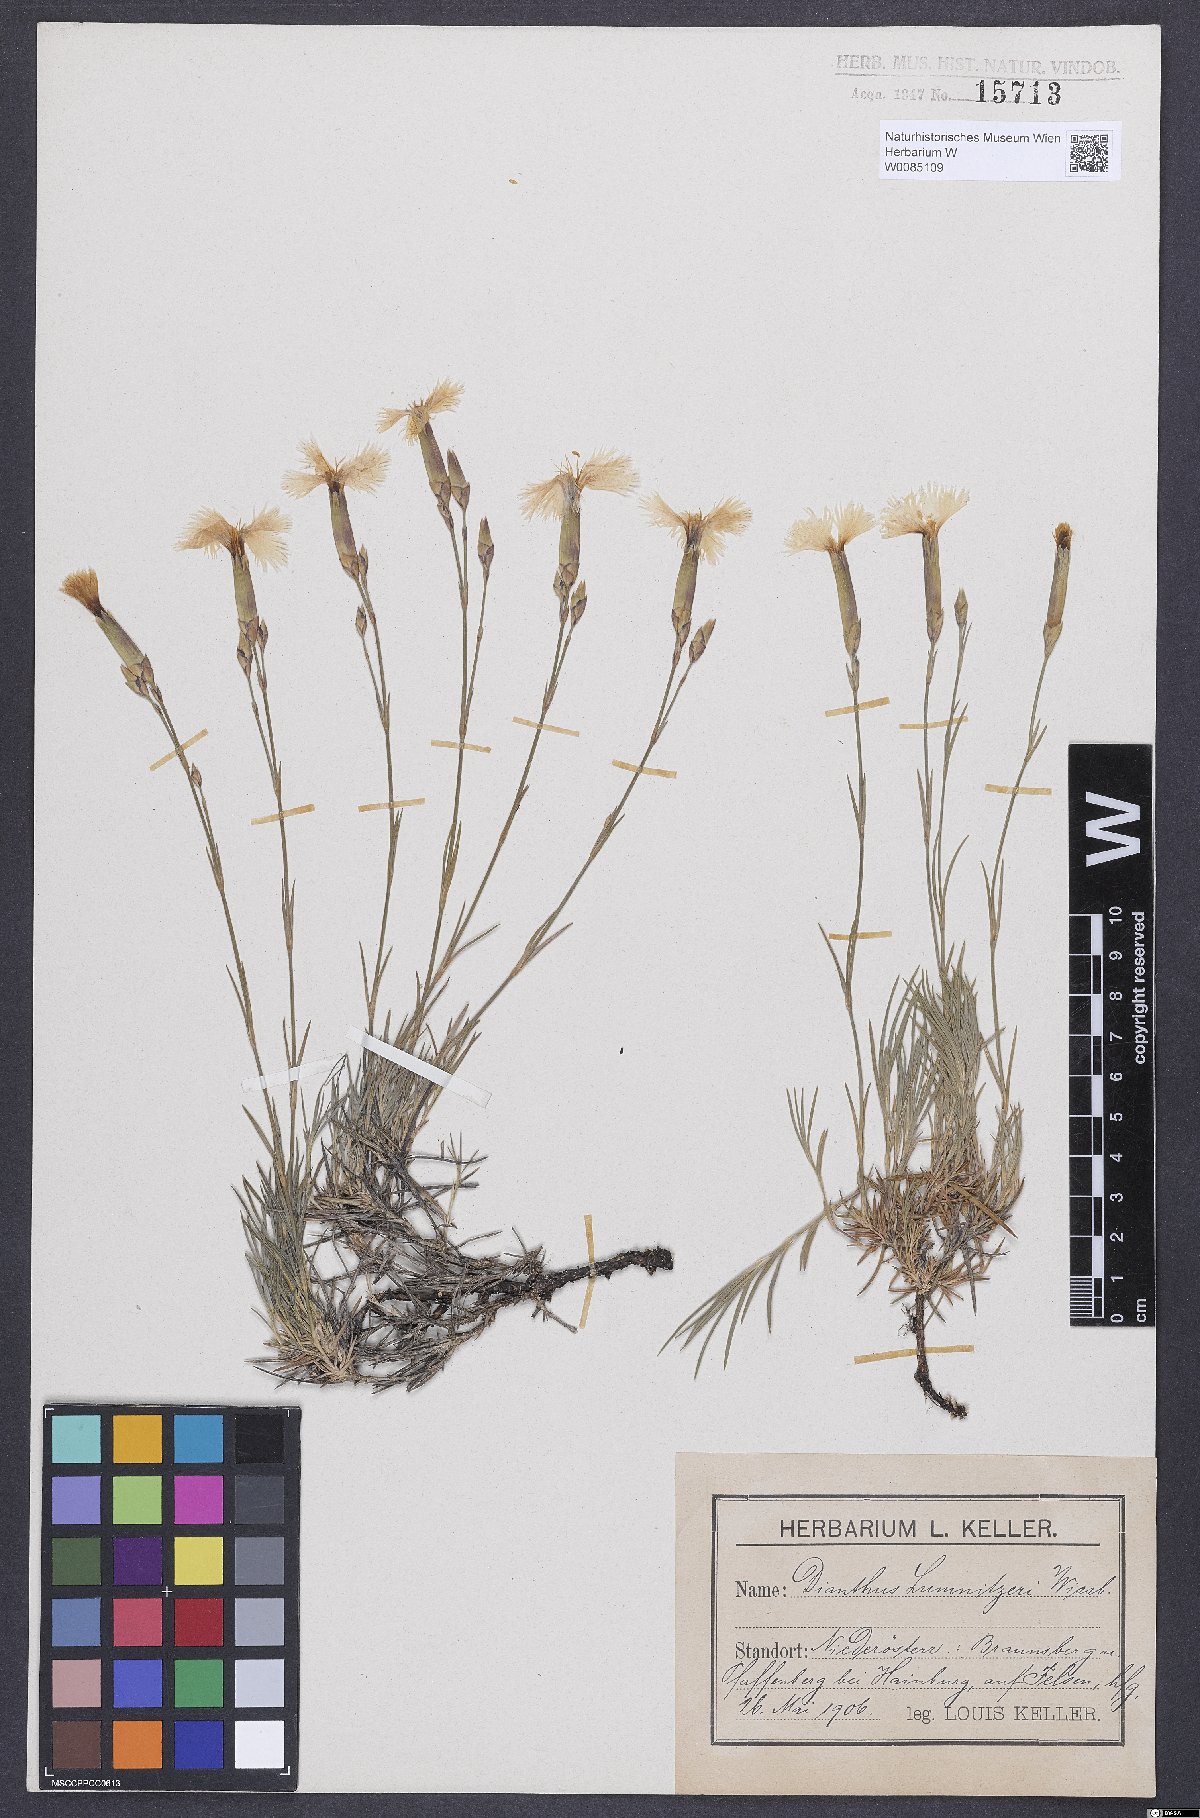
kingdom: Plantae
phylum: Tracheophyta
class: Magnoliopsida
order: Caryophyllales
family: Caryophyllaceae
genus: Dianthus
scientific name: Dianthus praecox
